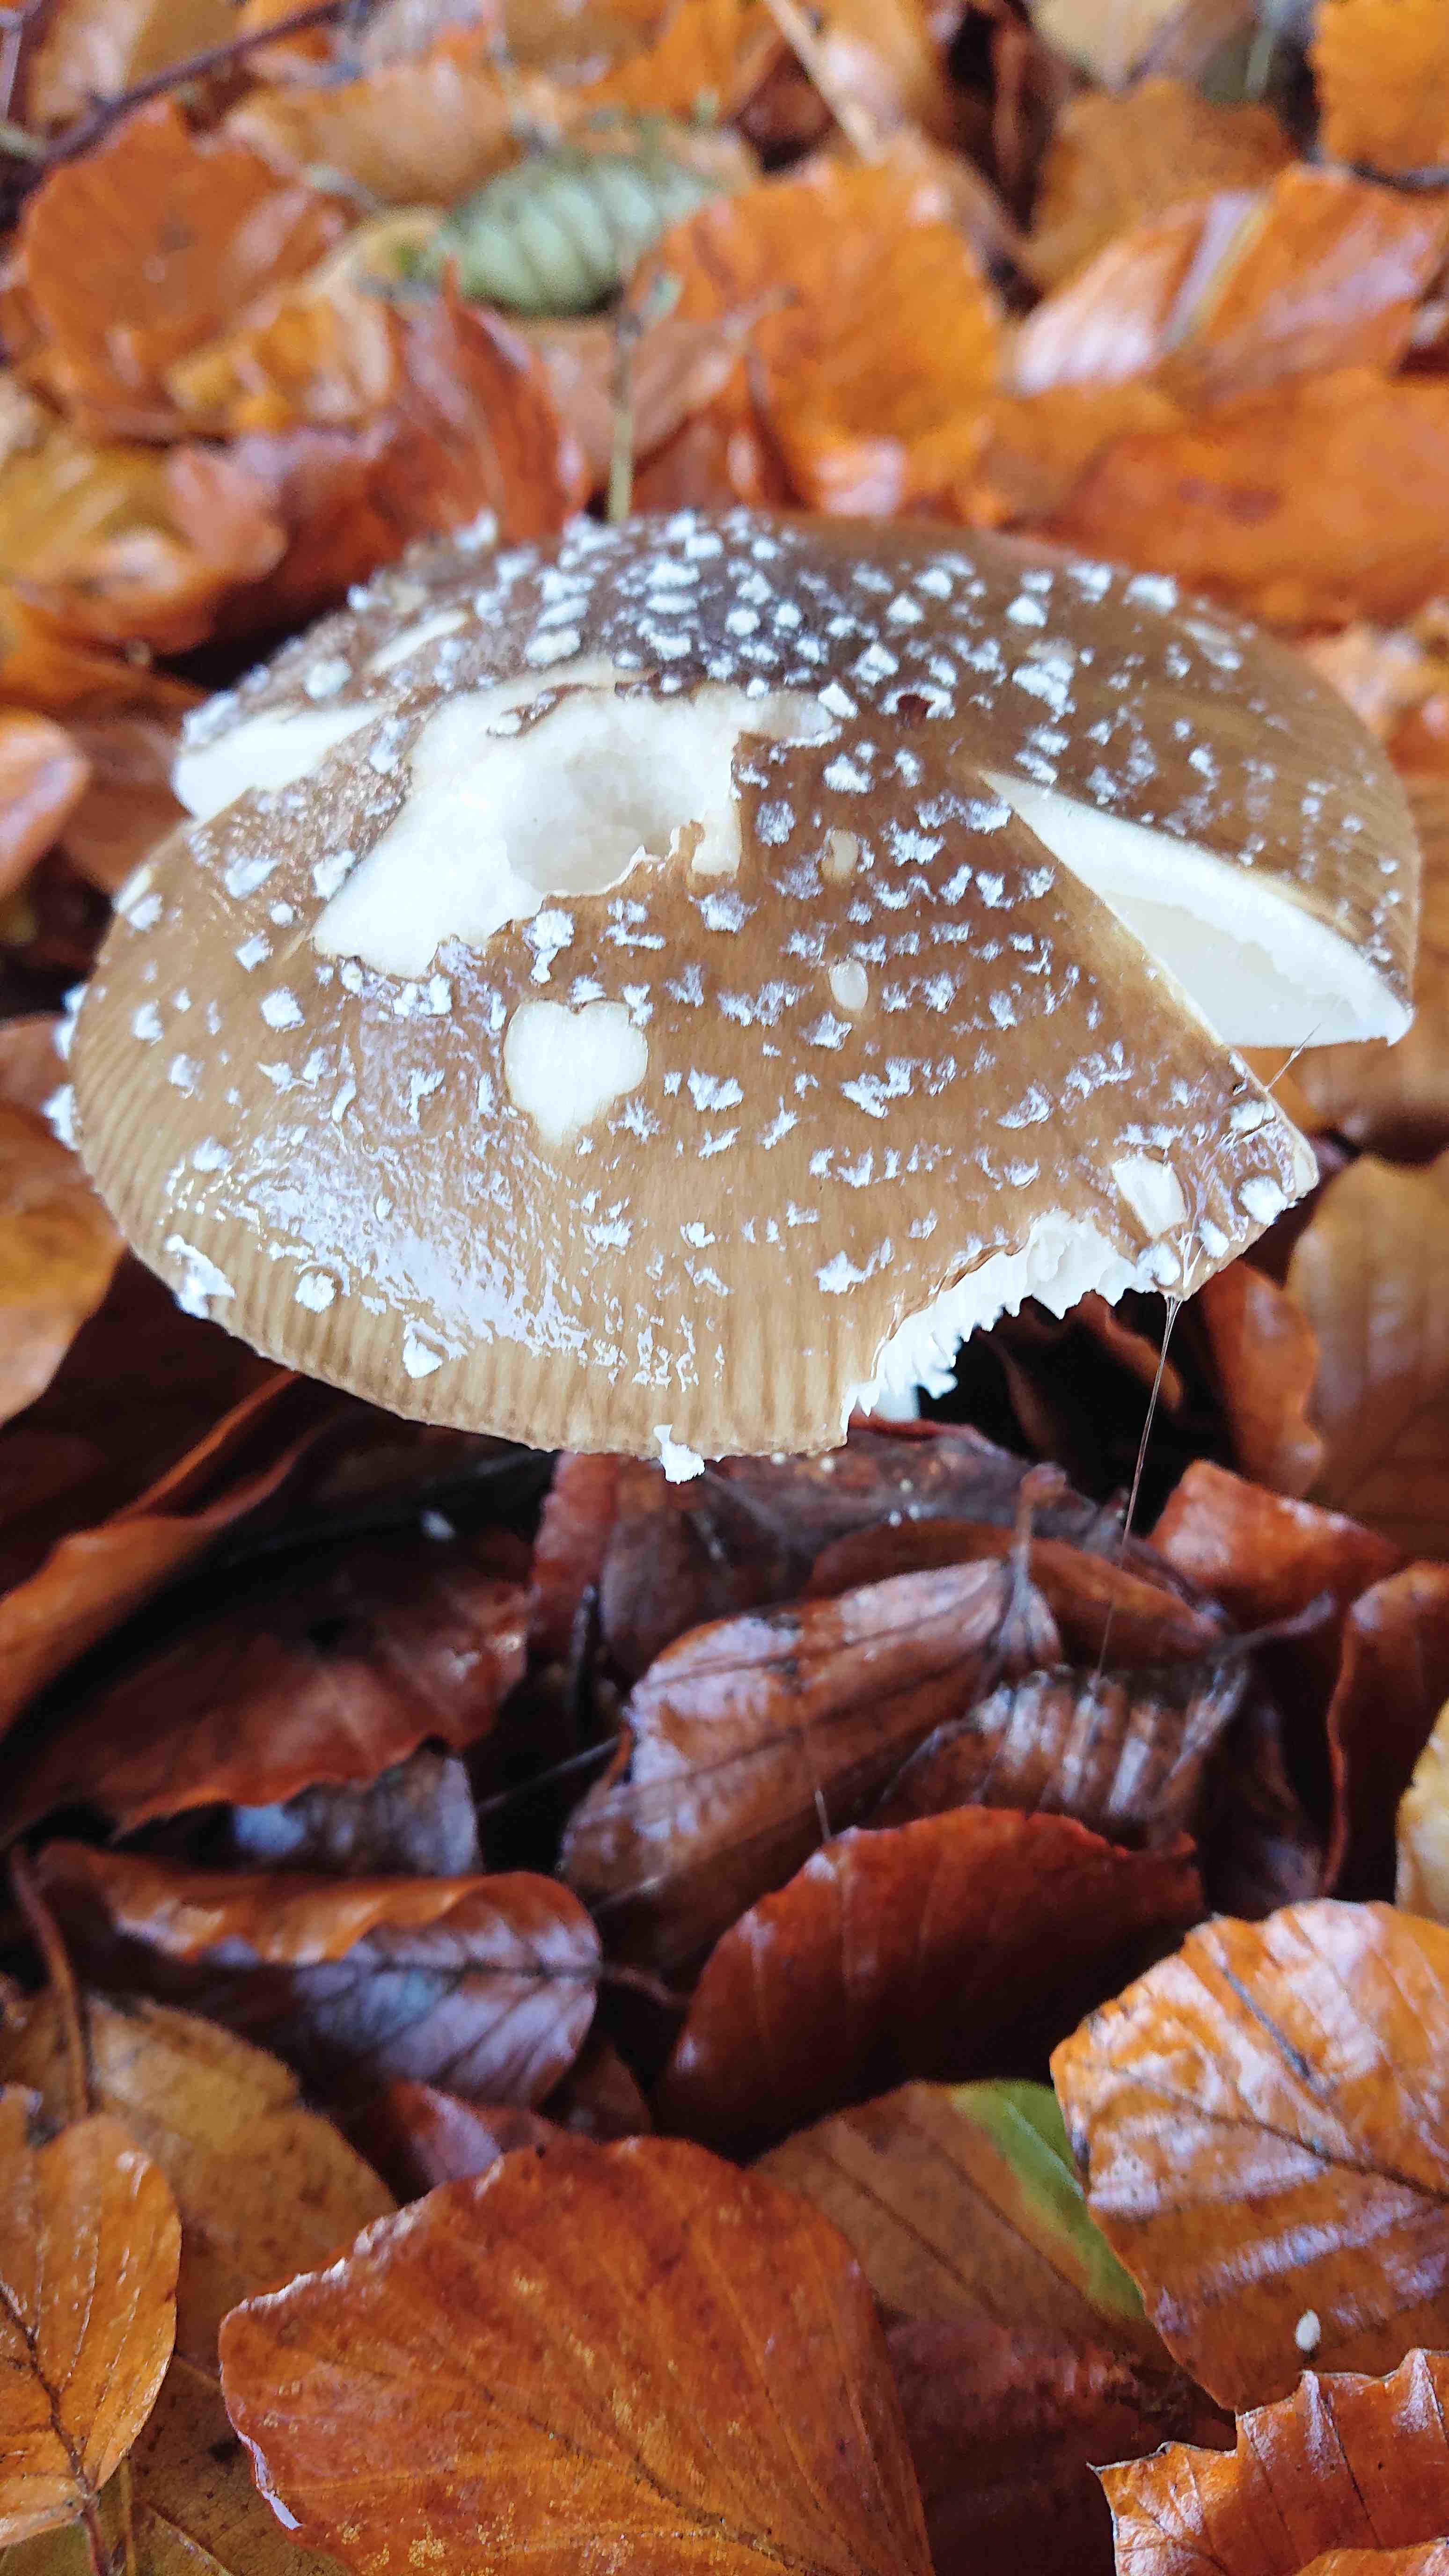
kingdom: Fungi
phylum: Basidiomycota
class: Agaricomycetes
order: Agaricales
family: Amanitaceae
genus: Amanita
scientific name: Amanita pantherina
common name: panter-fluesvamp
